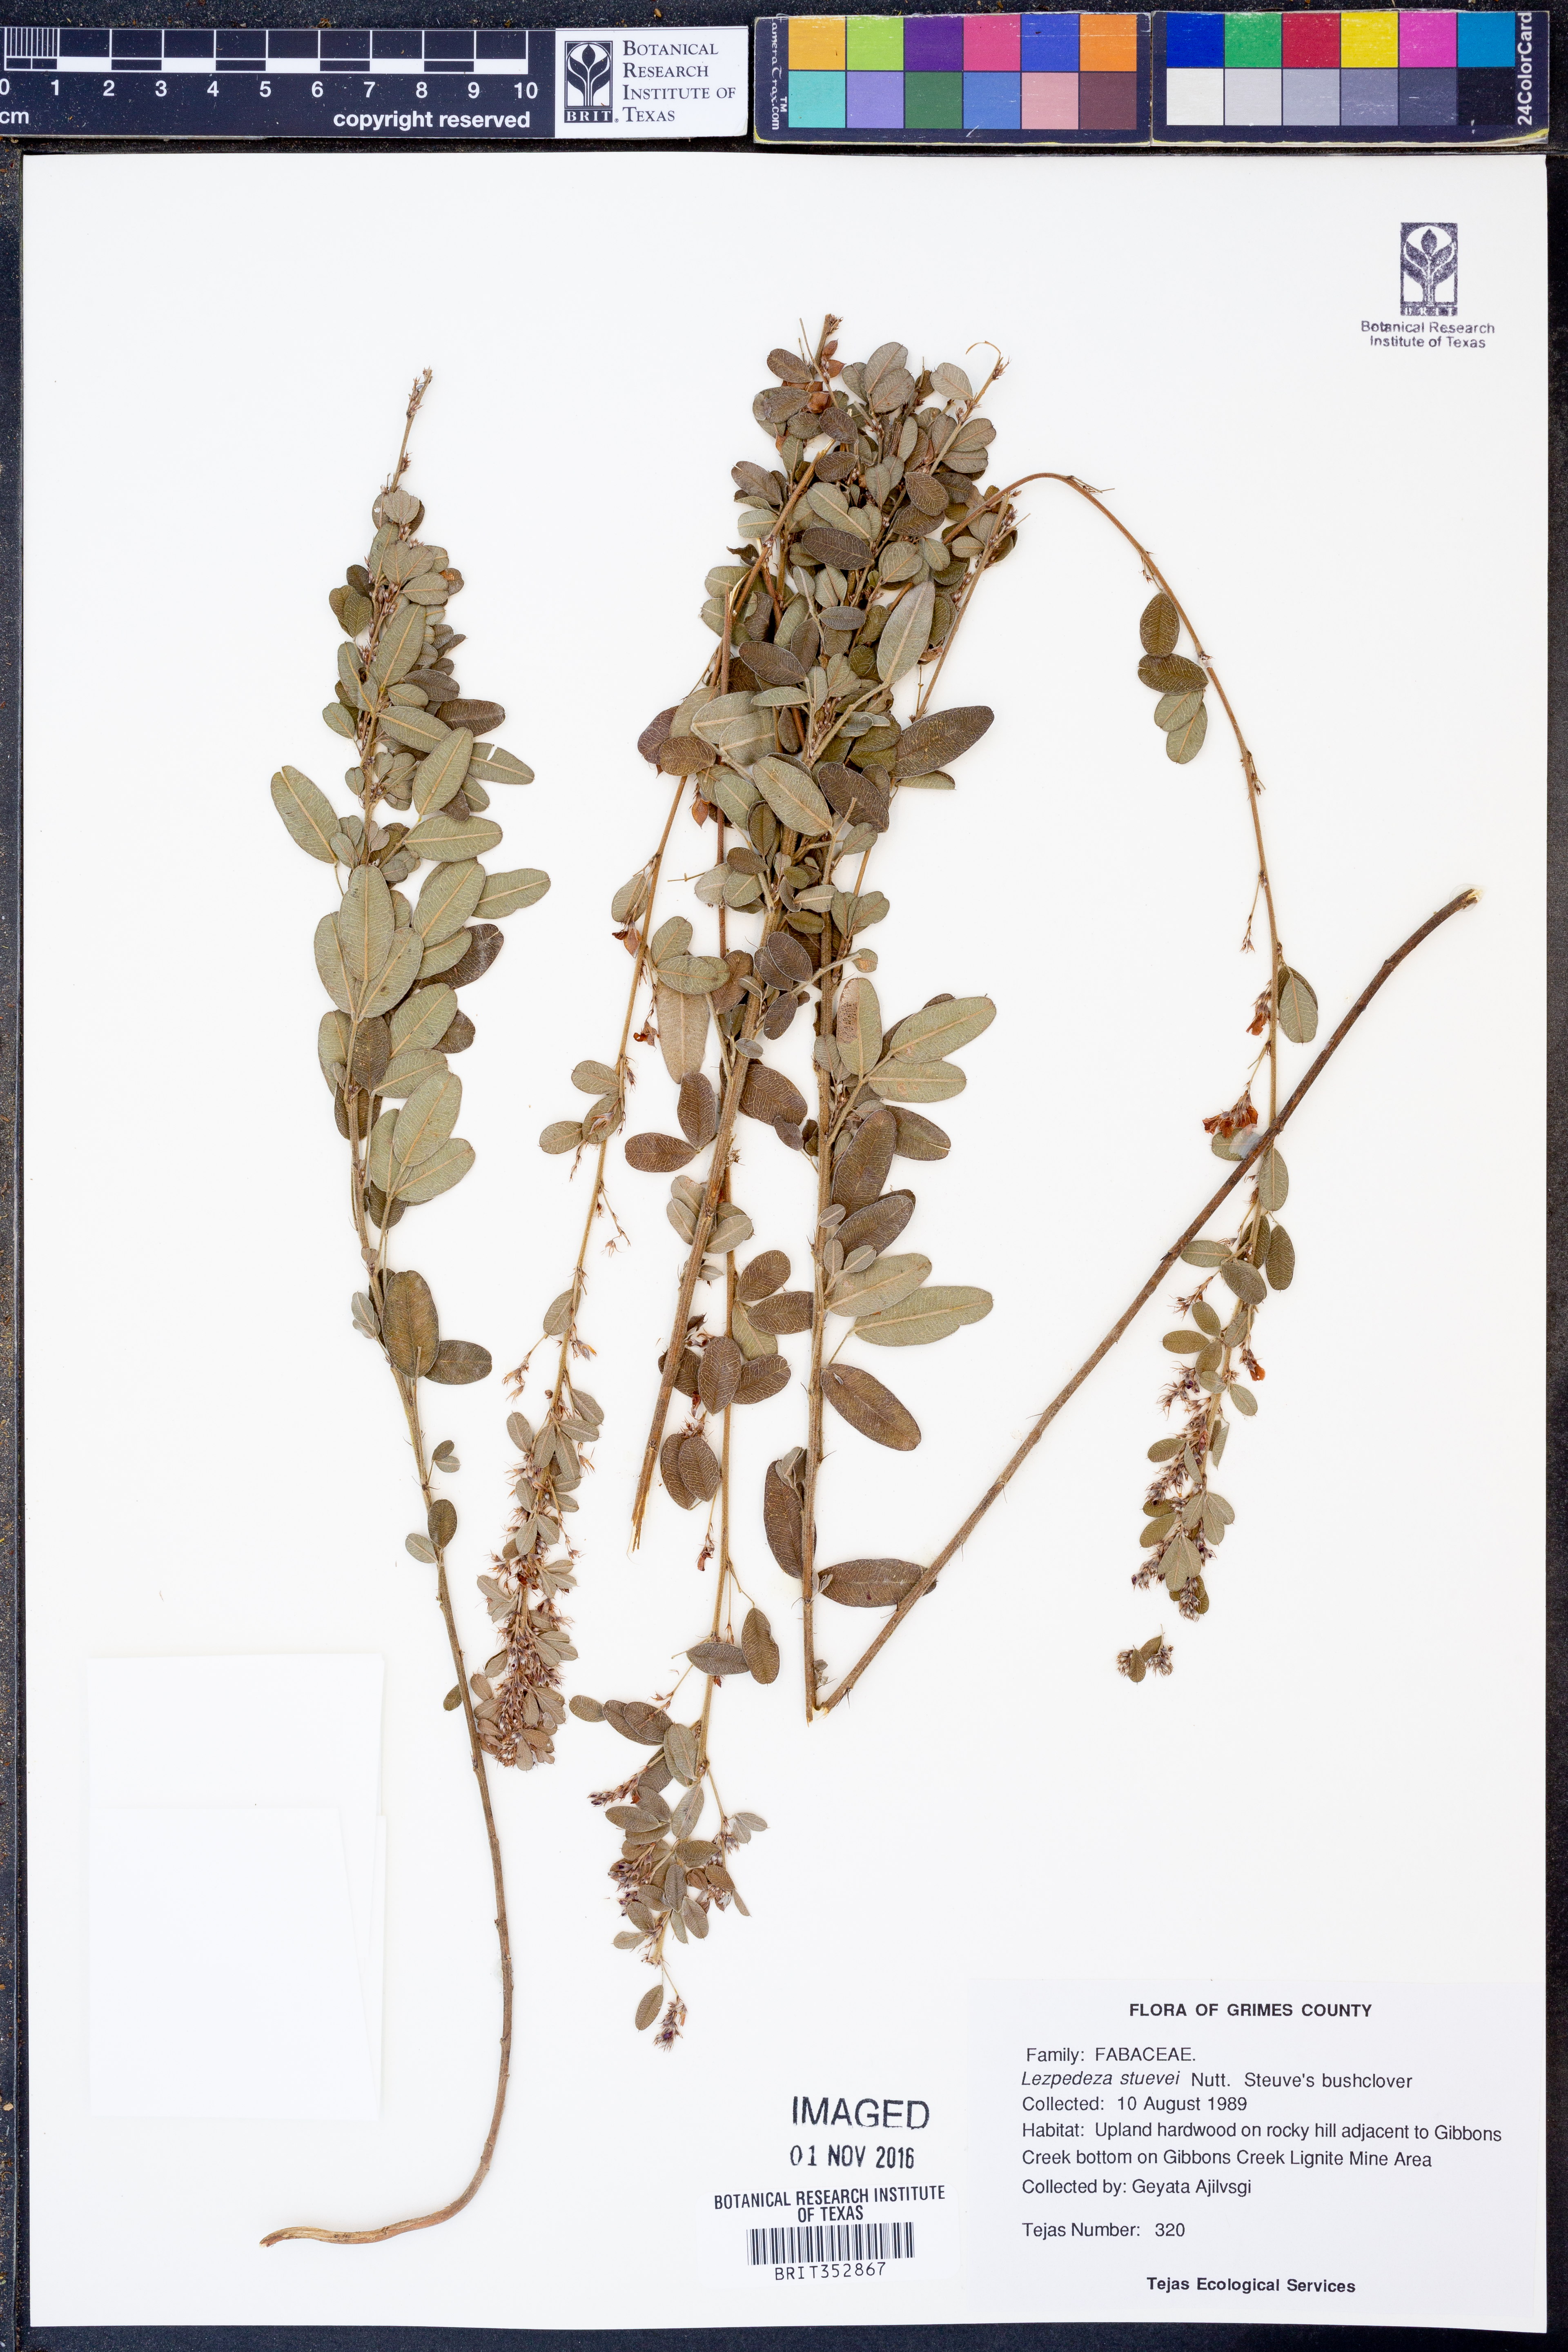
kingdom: Plantae
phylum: Tracheophyta
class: Magnoliopsida
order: Fabales
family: Fabaceae
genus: Lespedeza
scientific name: Lespedeza stuevei
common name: Tall bush-clover
